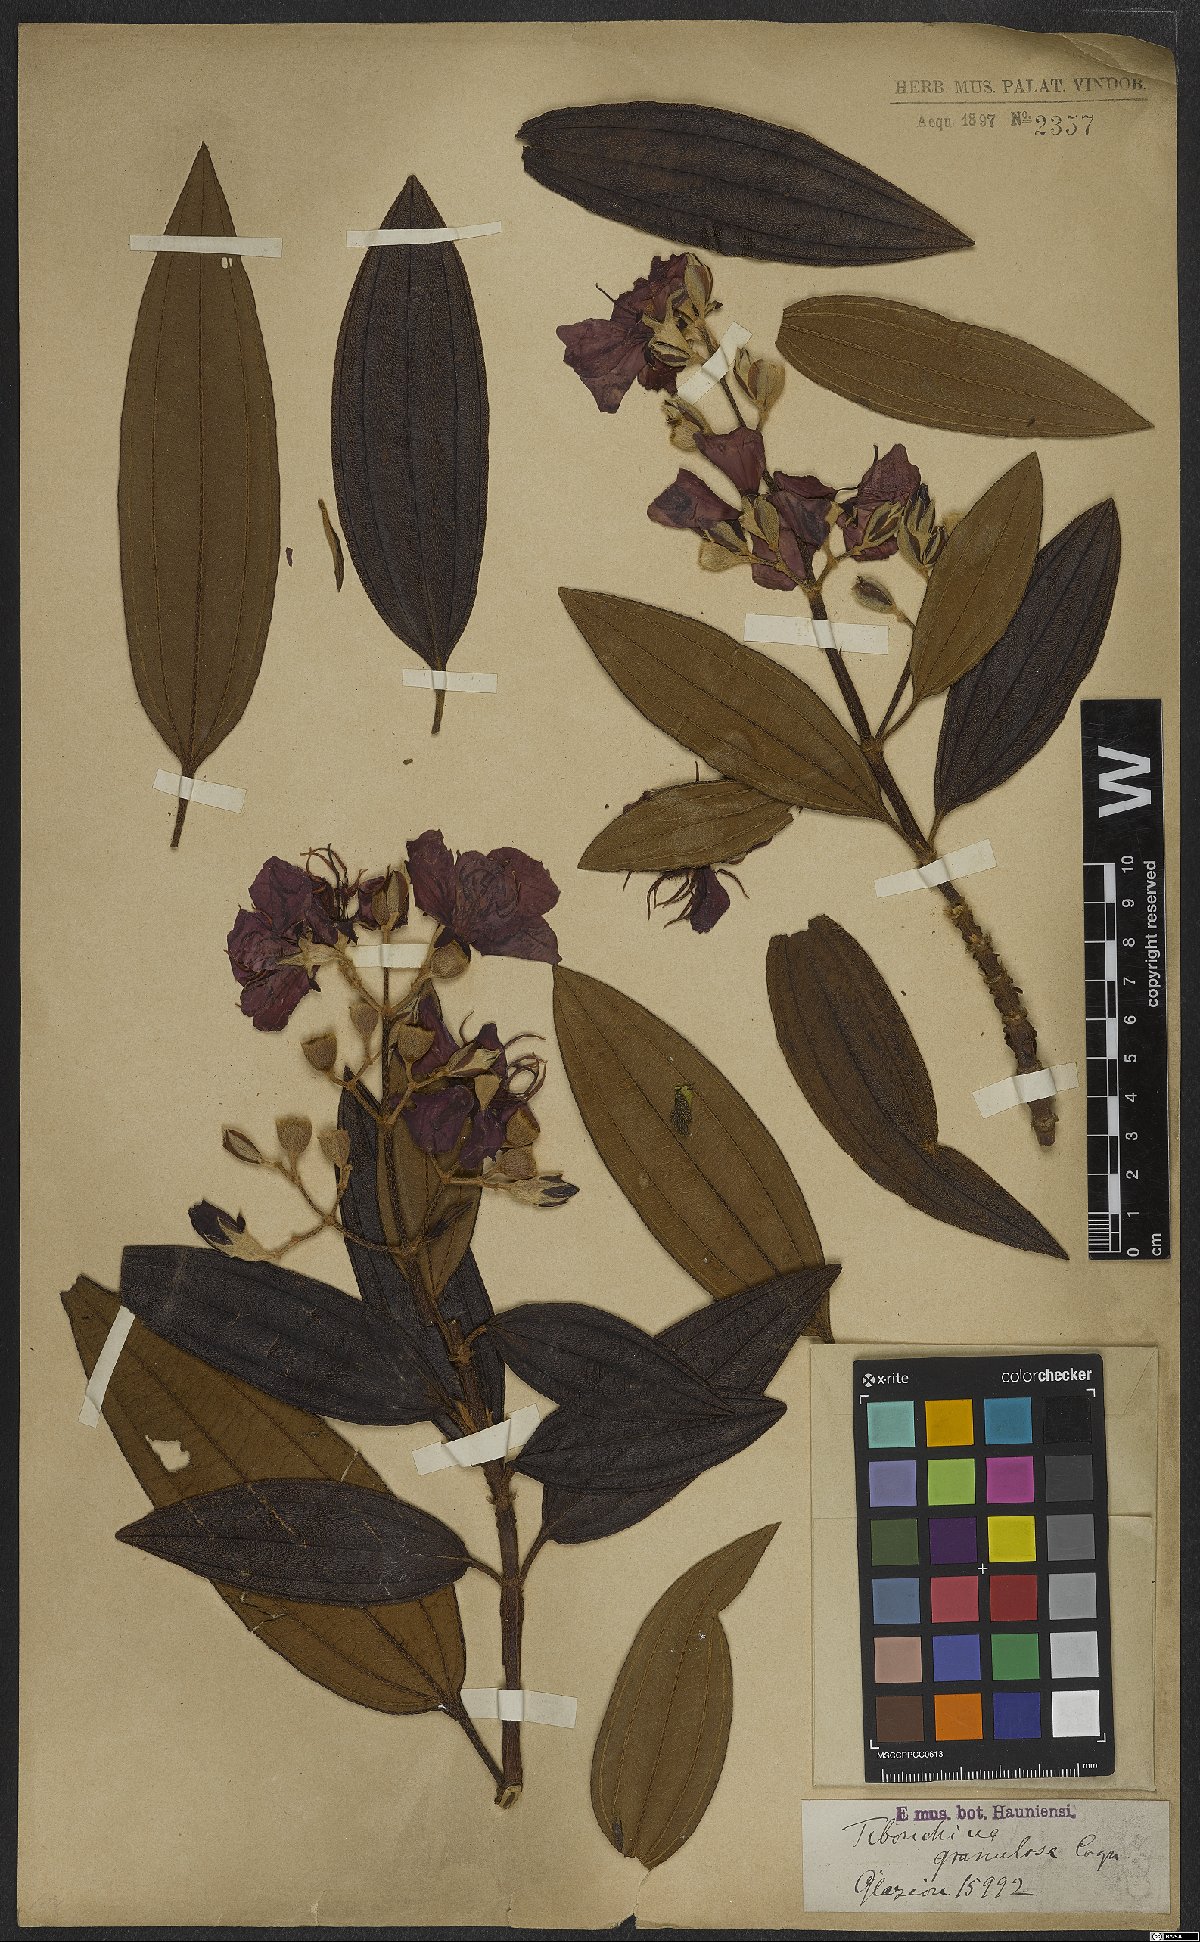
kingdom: Plantae
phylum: Tracheophyta
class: Magnoliopsida
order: Myrtales
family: Melastomataceae
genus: Pleroma
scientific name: Pleroma granulosum
